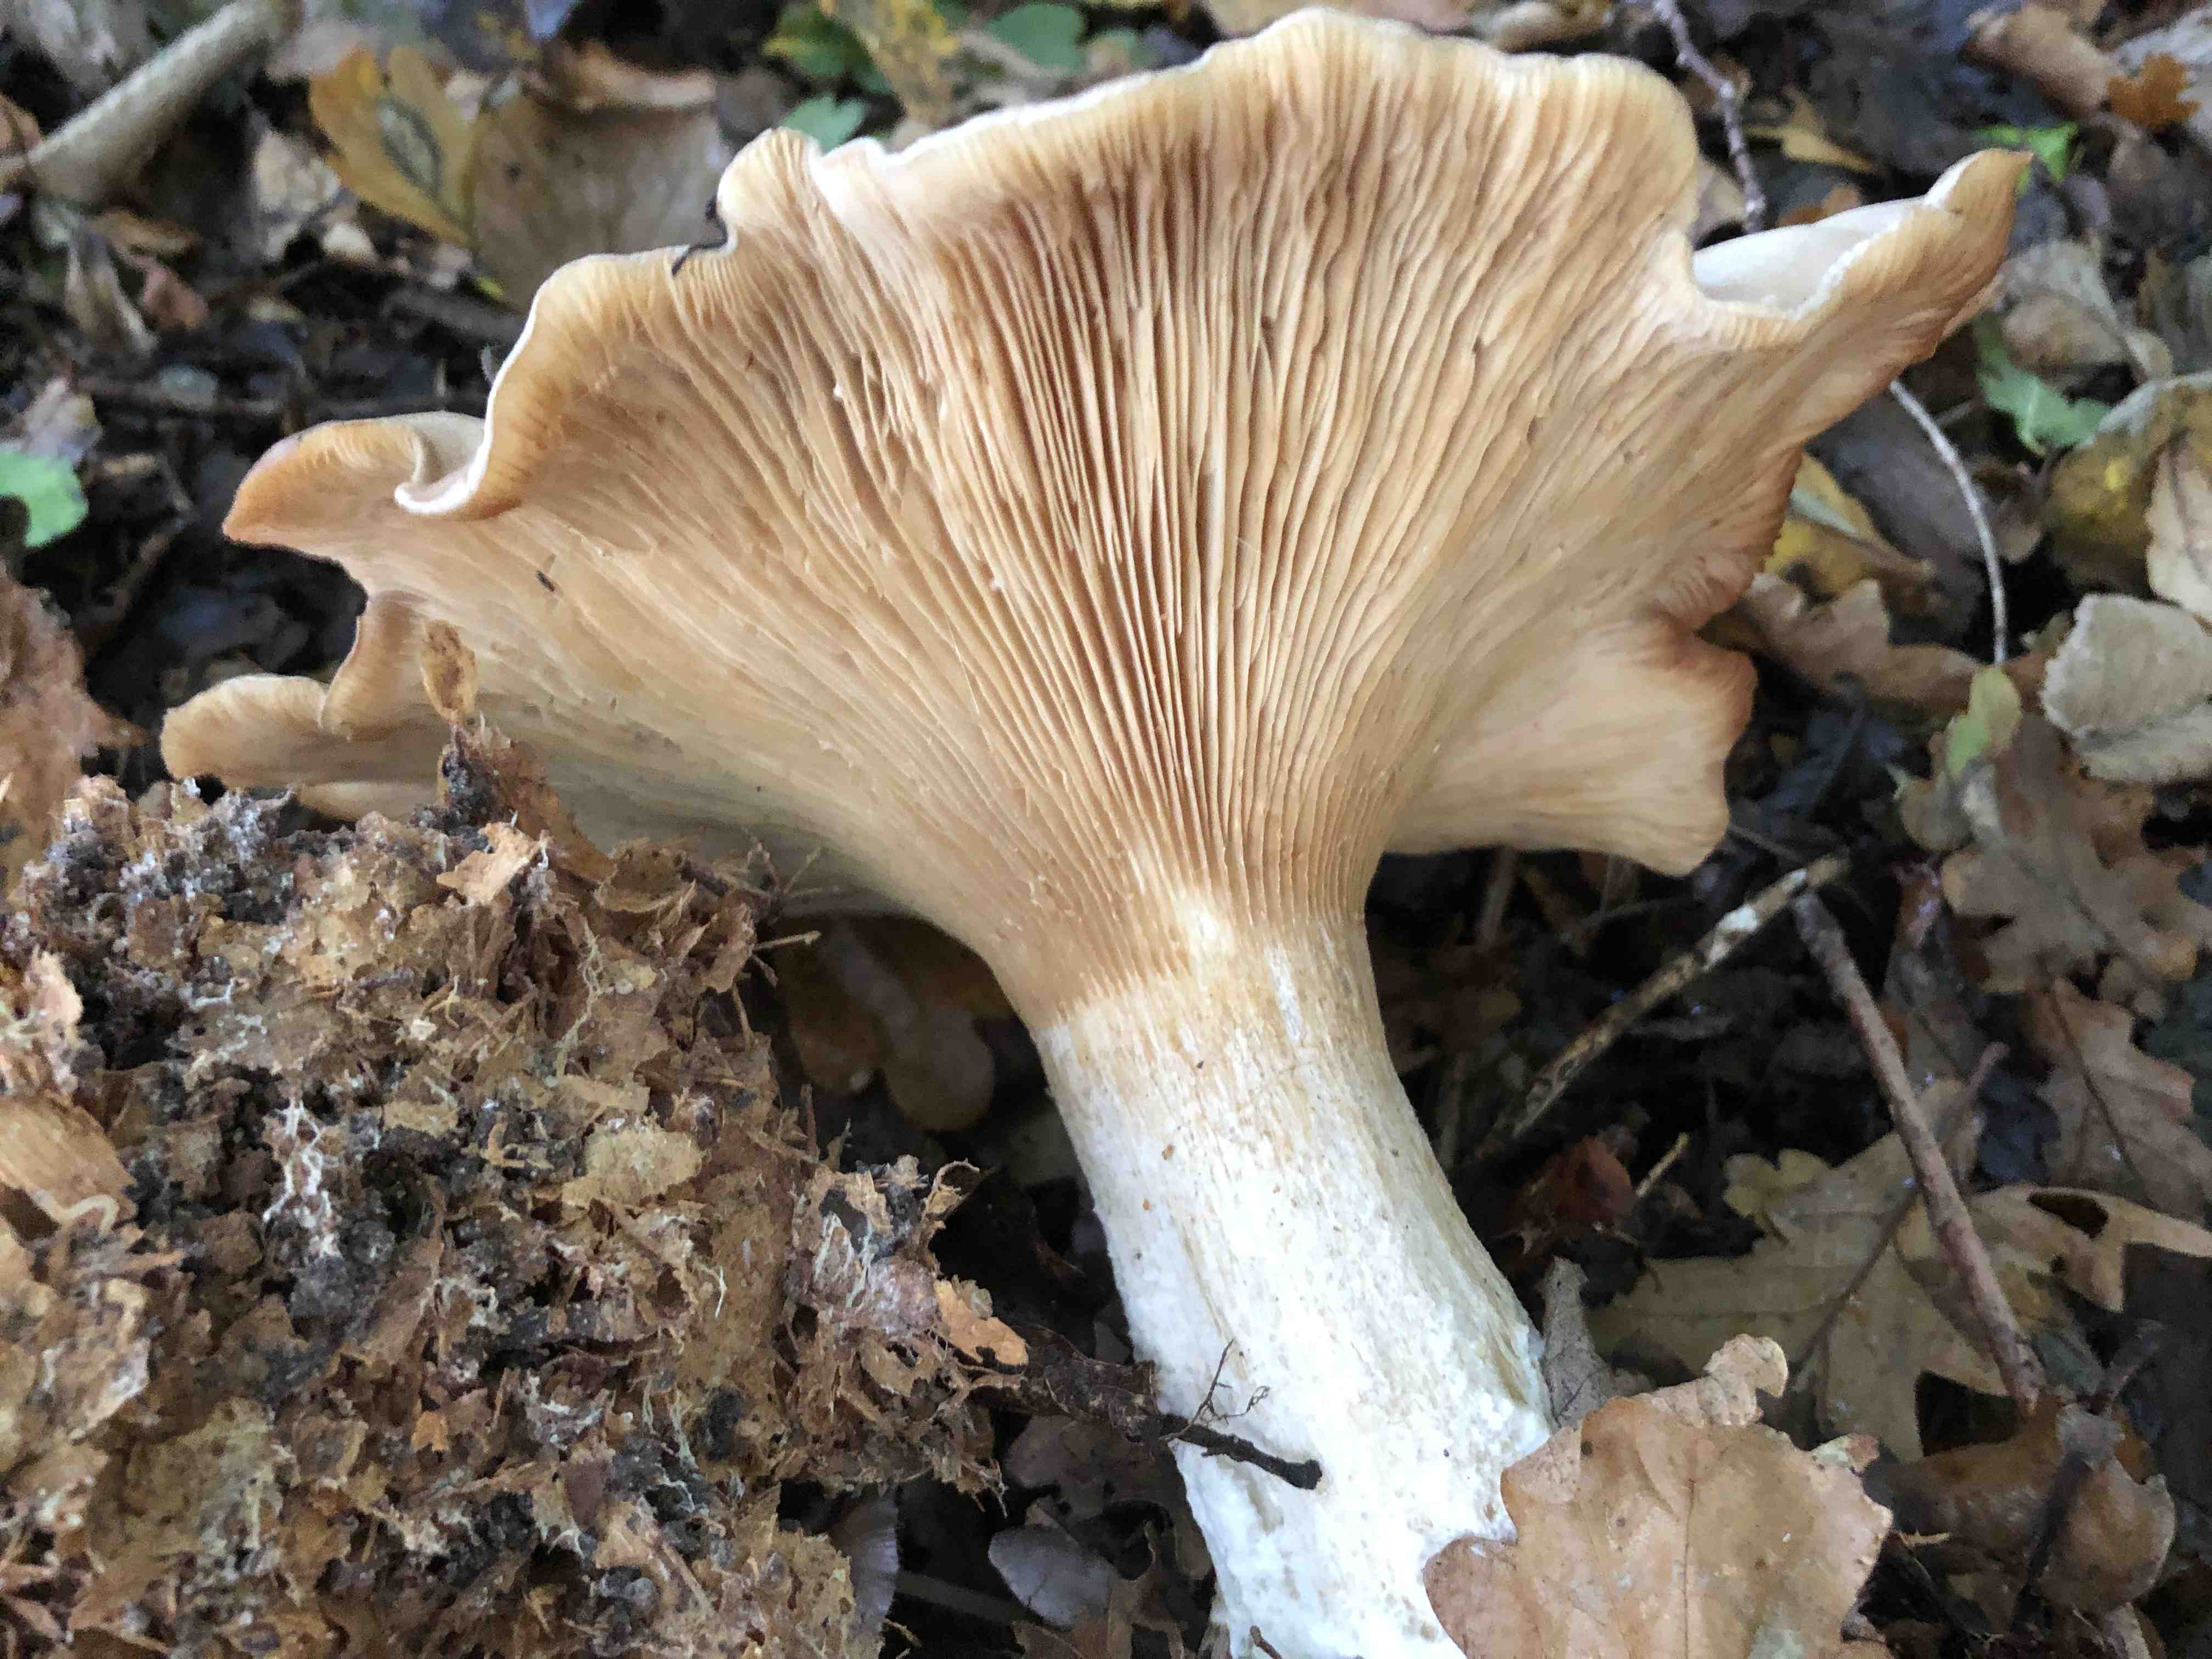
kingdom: Fungi
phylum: Basidiomycota
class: Agaricomycetes
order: Agaricales
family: Tricholomataceae
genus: Clitocybe
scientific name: Clitocybe nebularis
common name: tåge-tragthat
